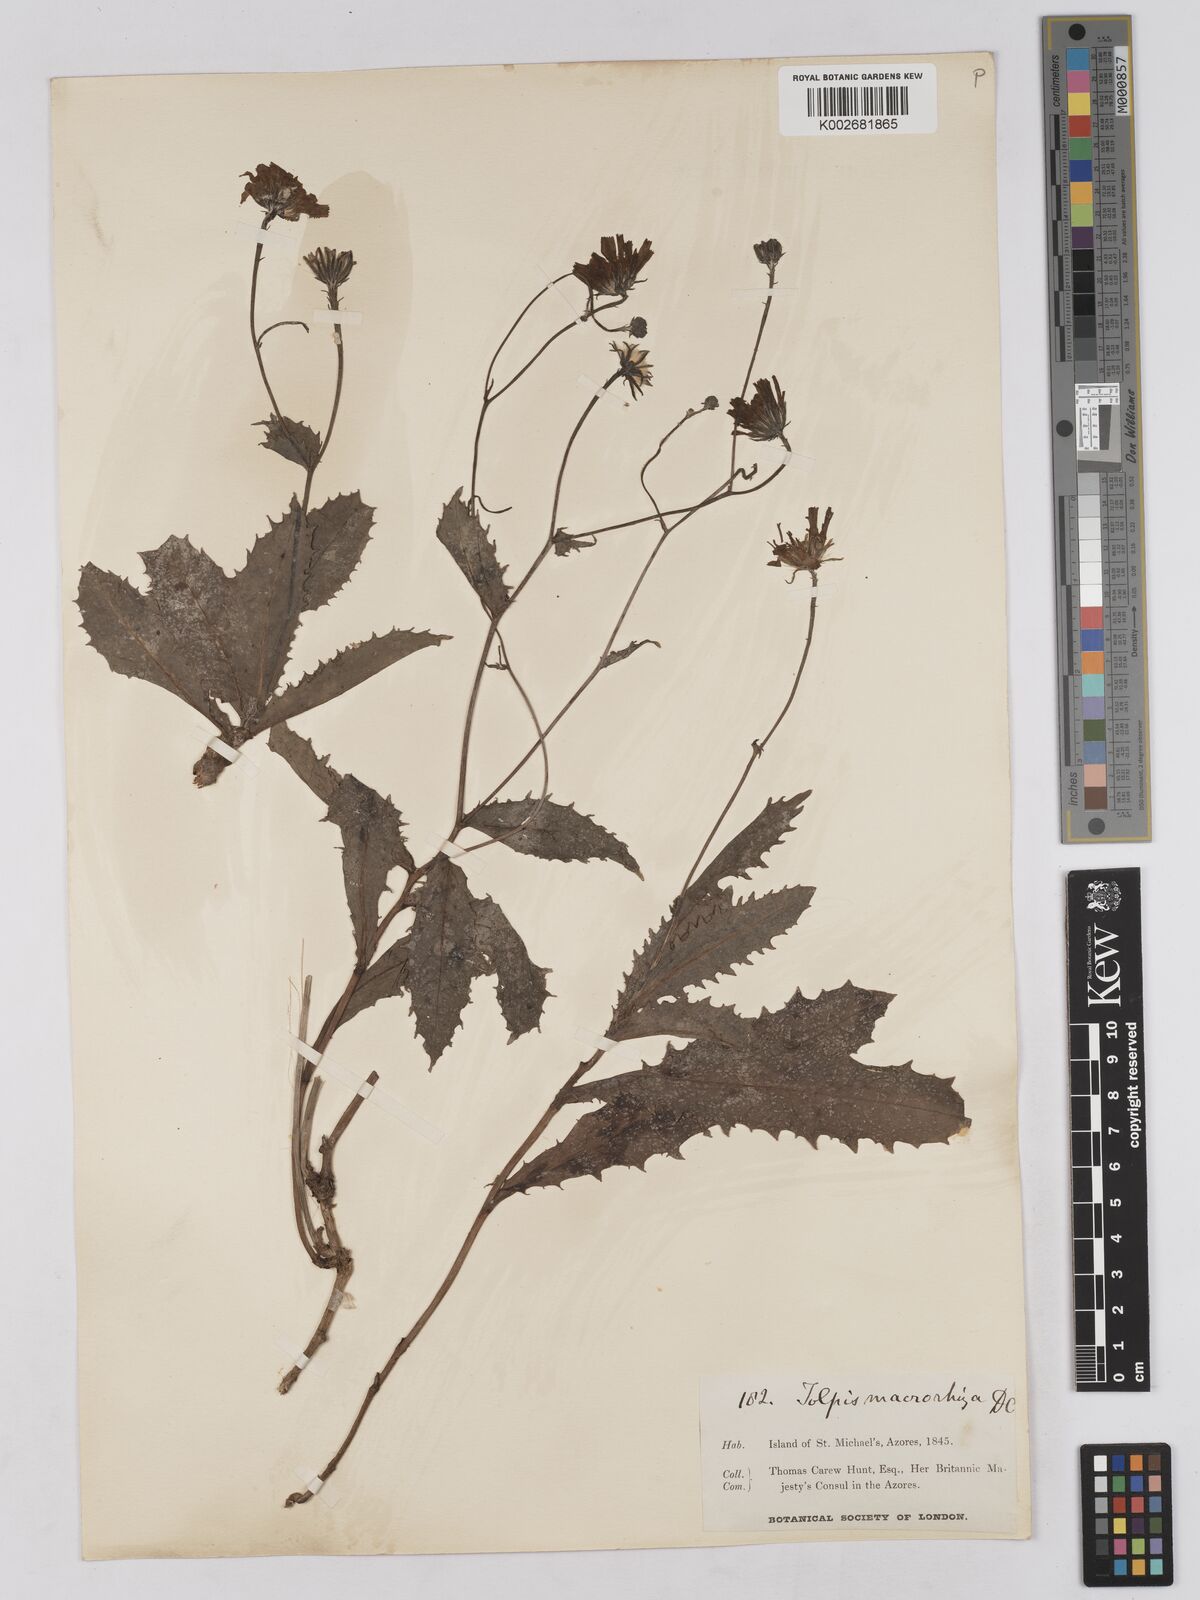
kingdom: Plantae
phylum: Tracheophyta
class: Magnoliopsida
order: Asterales
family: Asteraceae
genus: Tolpis
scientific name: Tolpis nobilis
